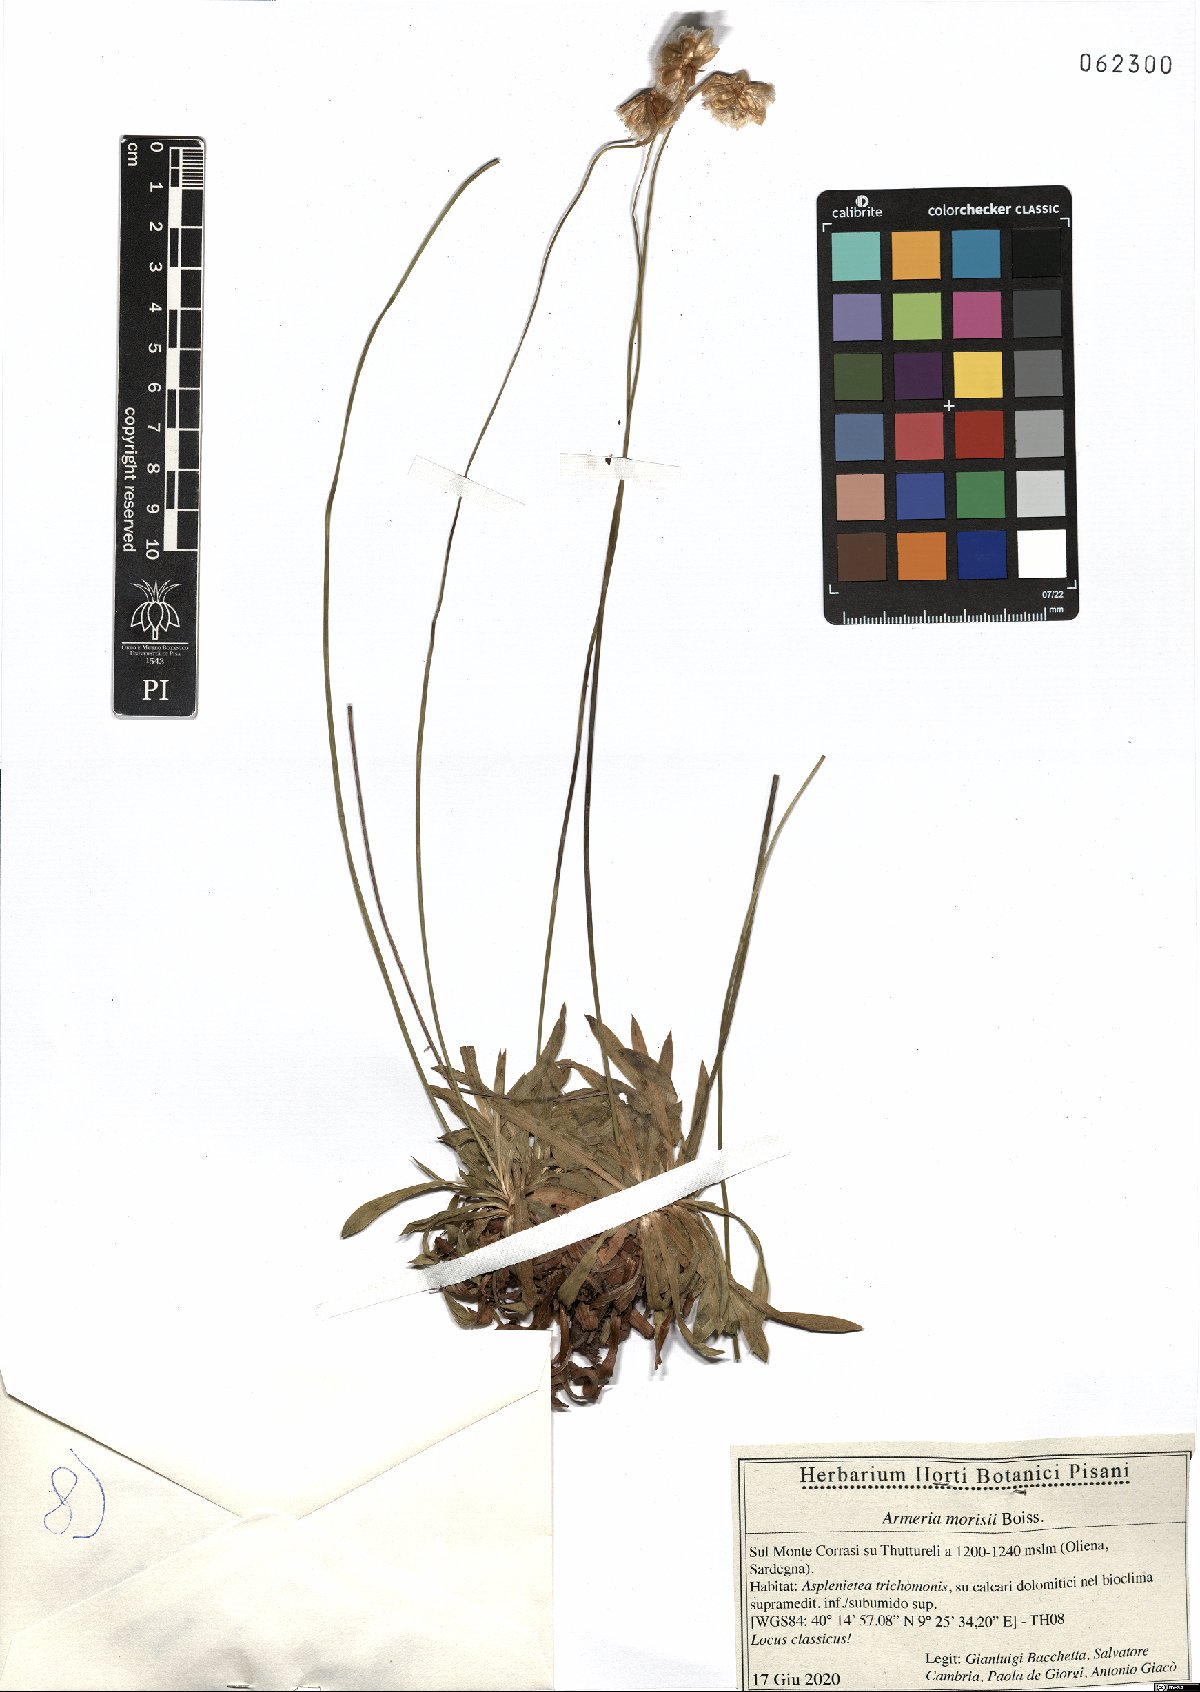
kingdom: Plantae
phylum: Tracheophyta
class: Magnoliopsida
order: Caryophyllales
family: Plumbaginaceae
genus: Armeria
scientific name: Armeria morisii
